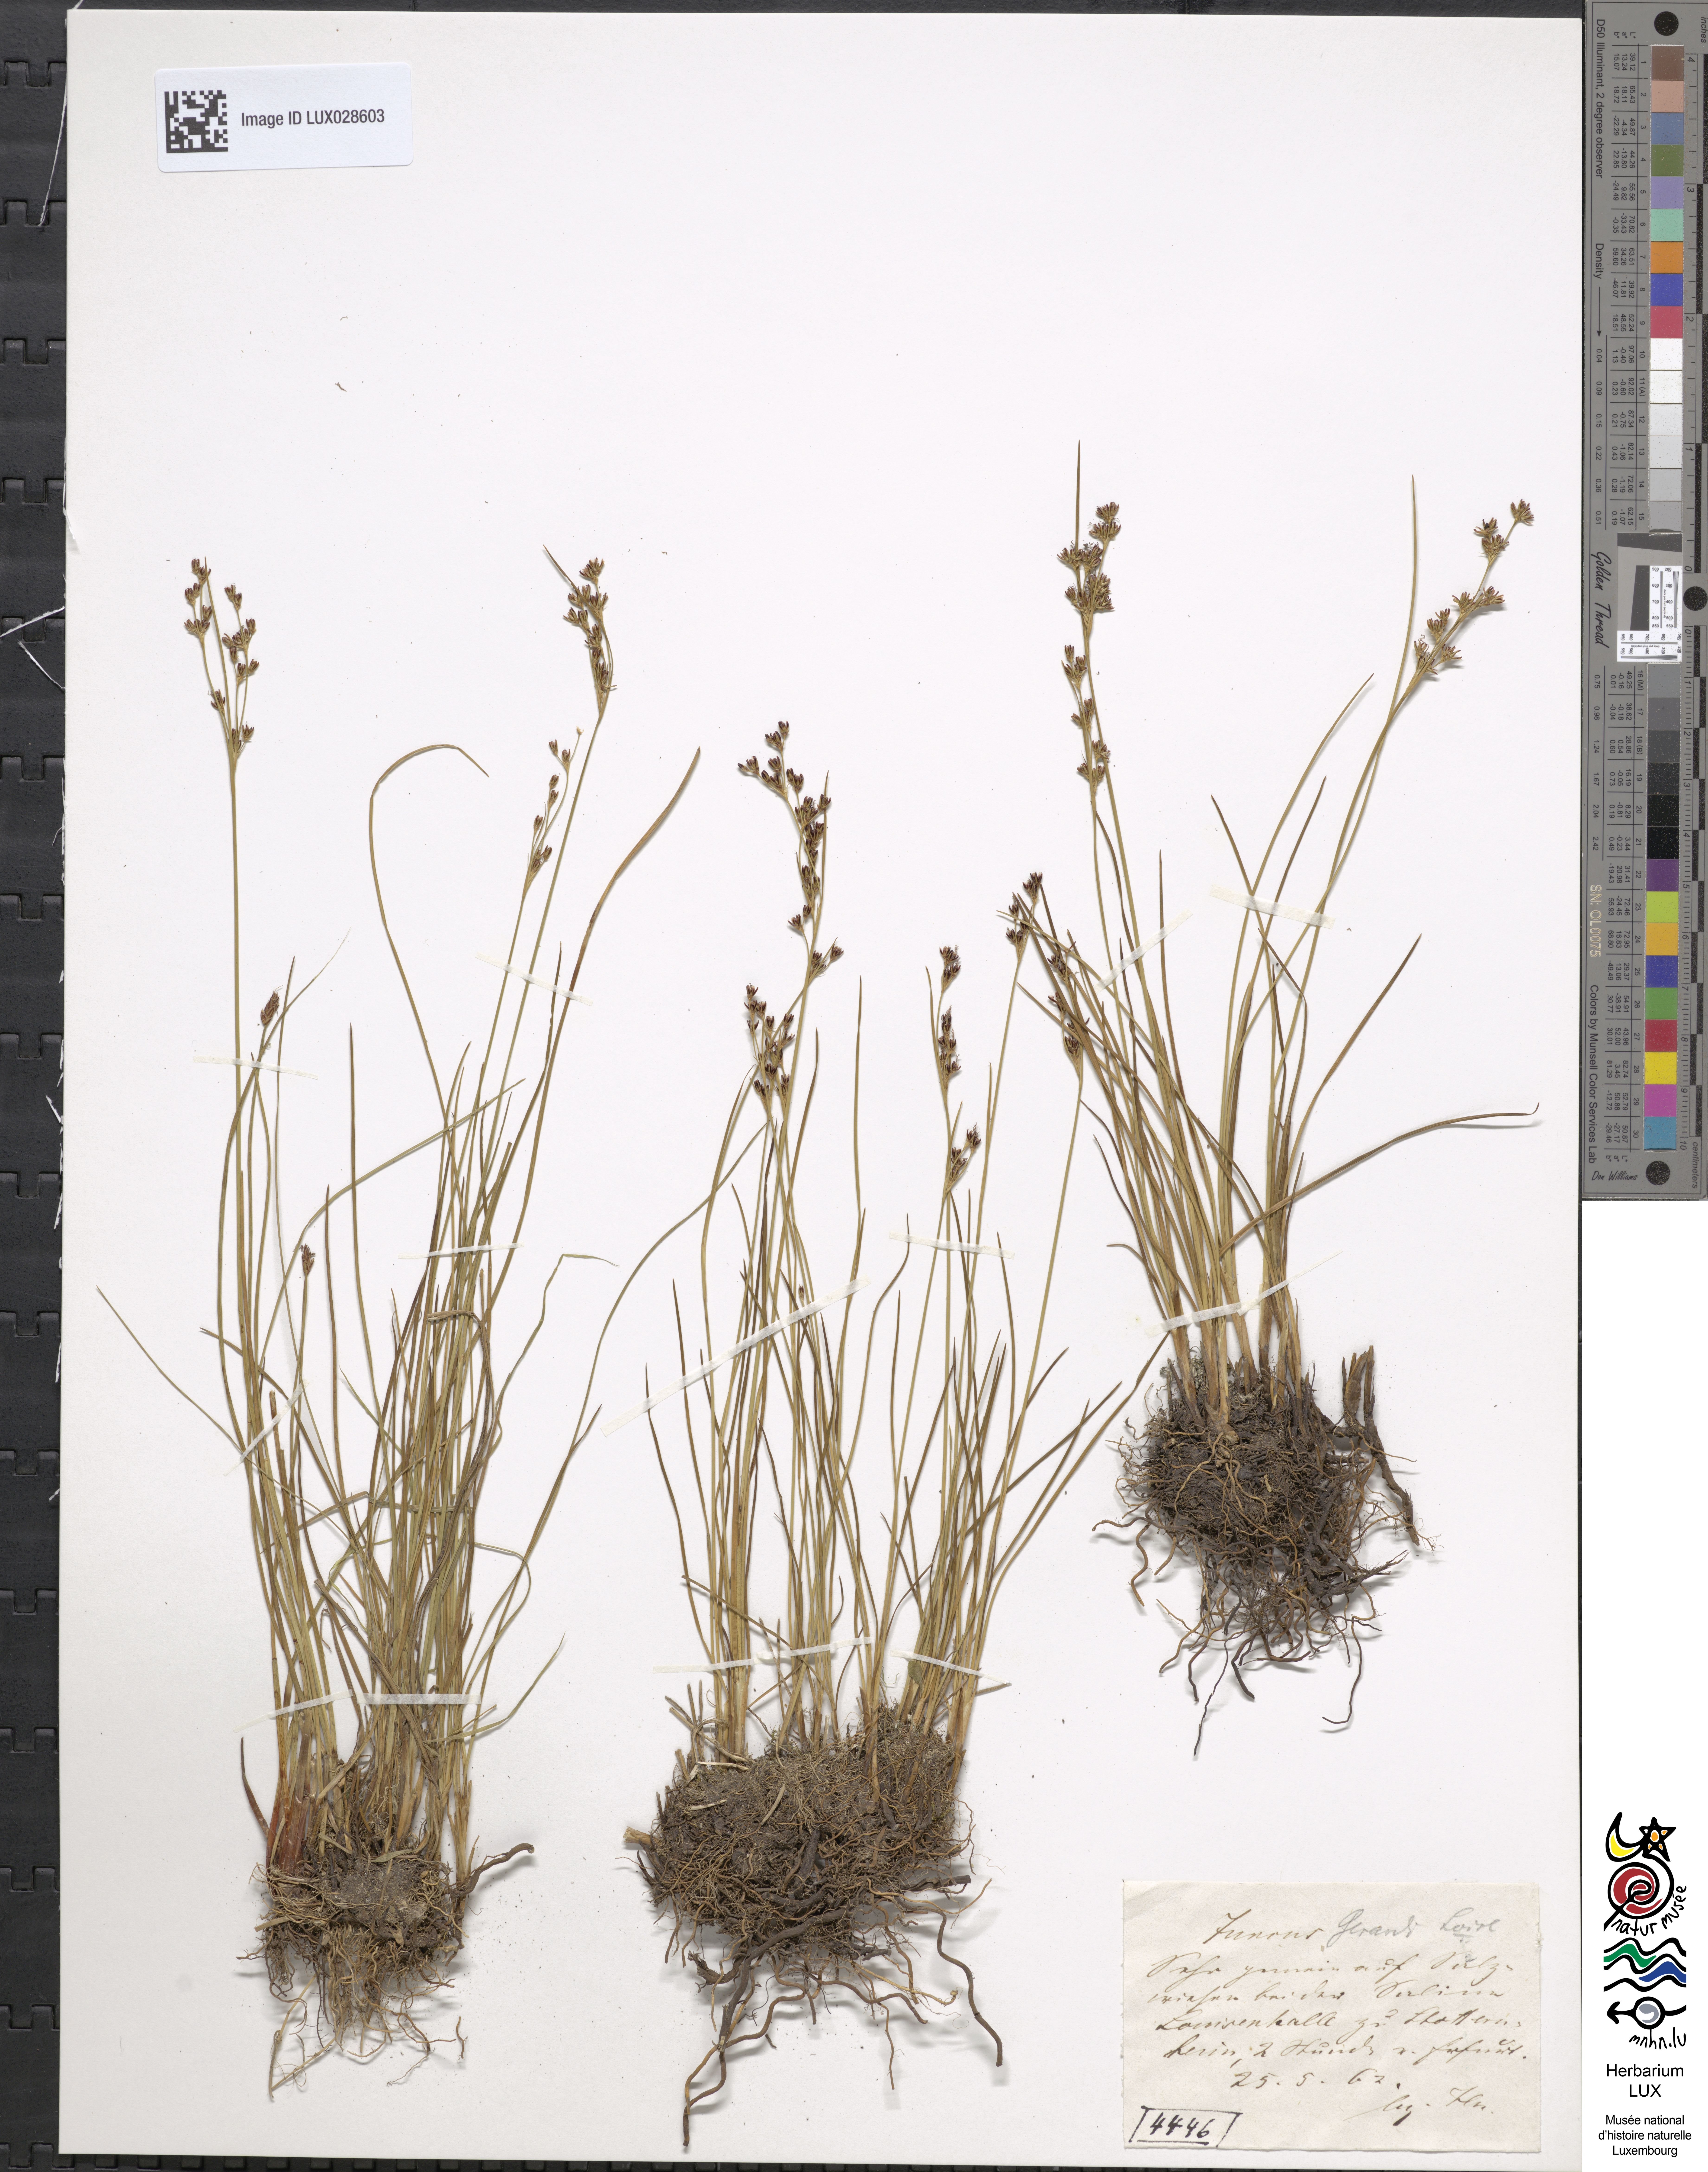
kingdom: Plantae
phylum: Tracheophyta
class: Liliopsida
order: Poales
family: Juncaceae
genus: Juncus
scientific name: Juncus gerardi
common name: Saltmarsh rush
